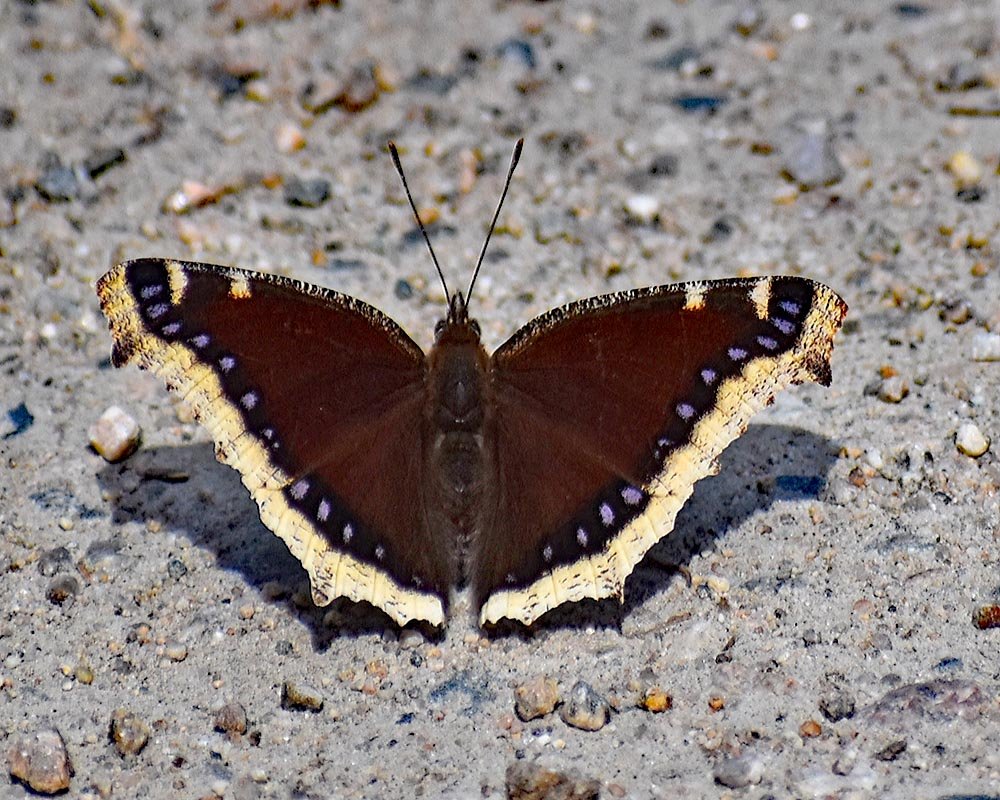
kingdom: Animalia
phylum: Arthropoda
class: Insecta
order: Lepidoptera
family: Nymphalidae
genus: Nymphalis
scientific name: Nymphalis antiopa
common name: Mourning Cloak
